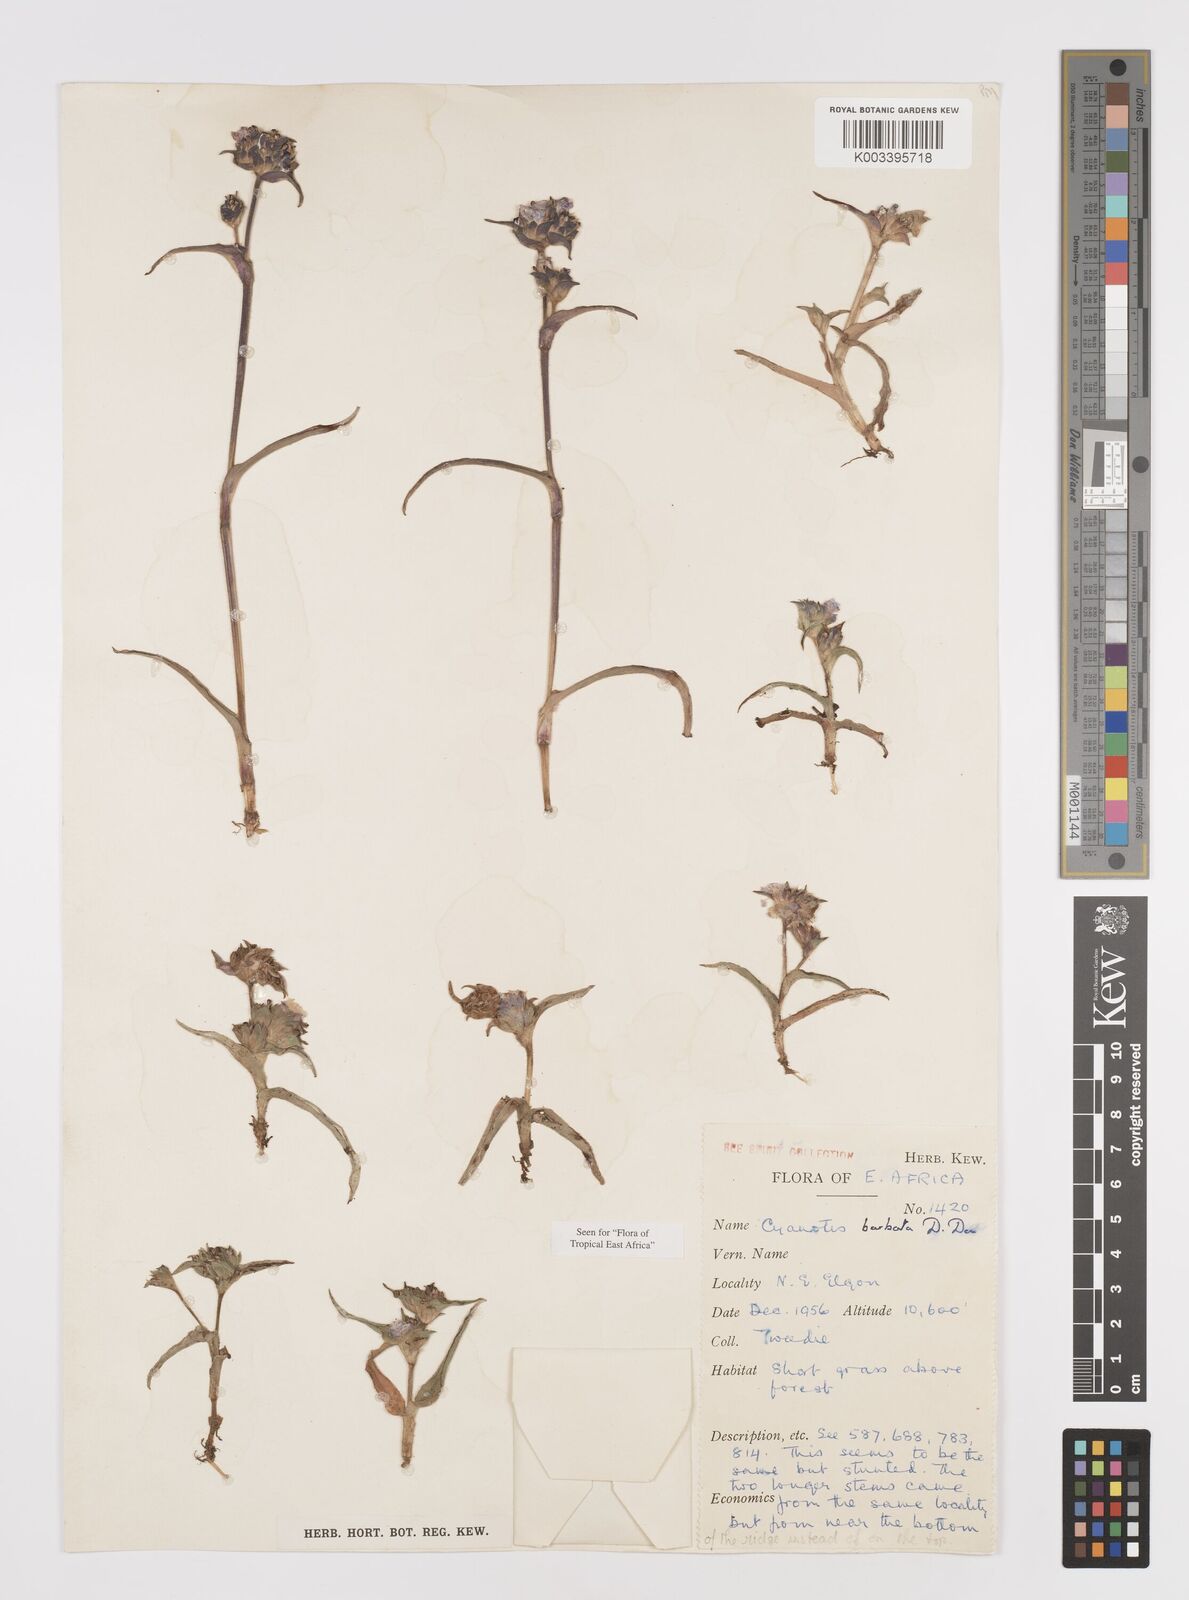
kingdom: Plantae
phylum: Tracheophyta
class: Liliopsida
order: Commelinales
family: Commelinaceae
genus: Cyanotis
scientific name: Cyanotis vaga
